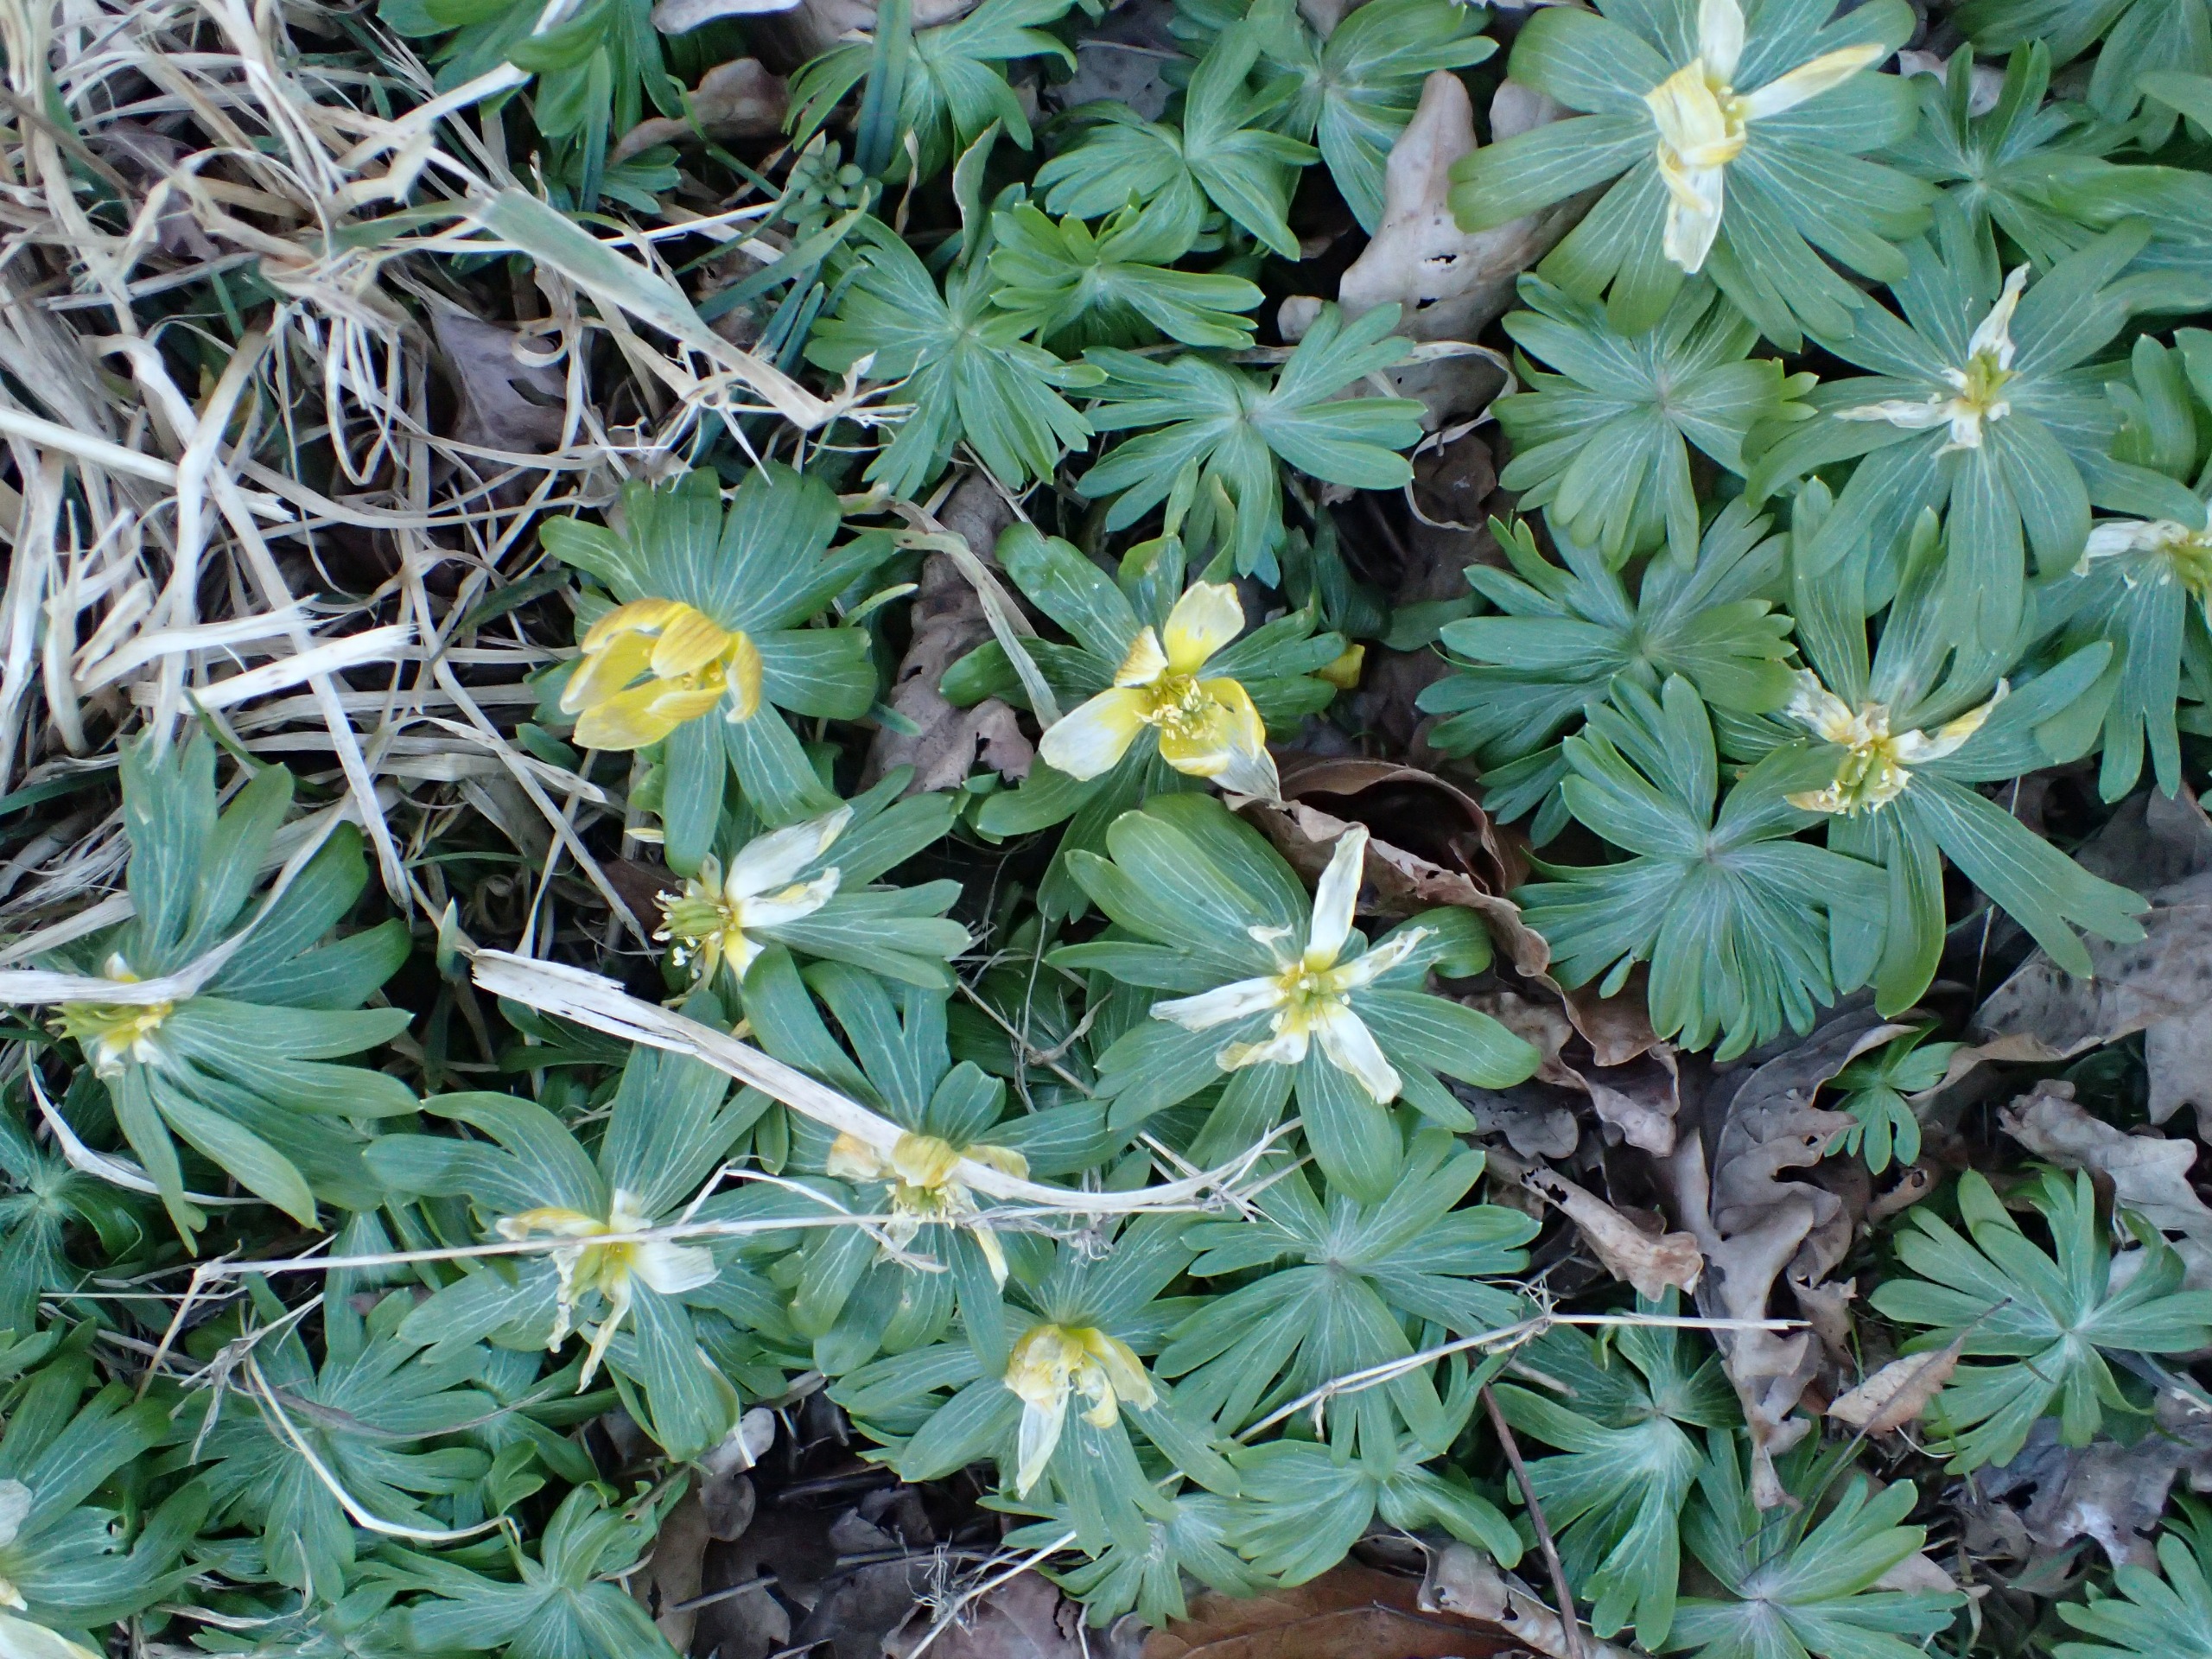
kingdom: Plantae
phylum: Tracheophyta
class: Magnoliopsida
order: Ranunculales
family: Ranunculaceae
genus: Eranthis
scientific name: Eranthis hyemalis
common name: Erantis
